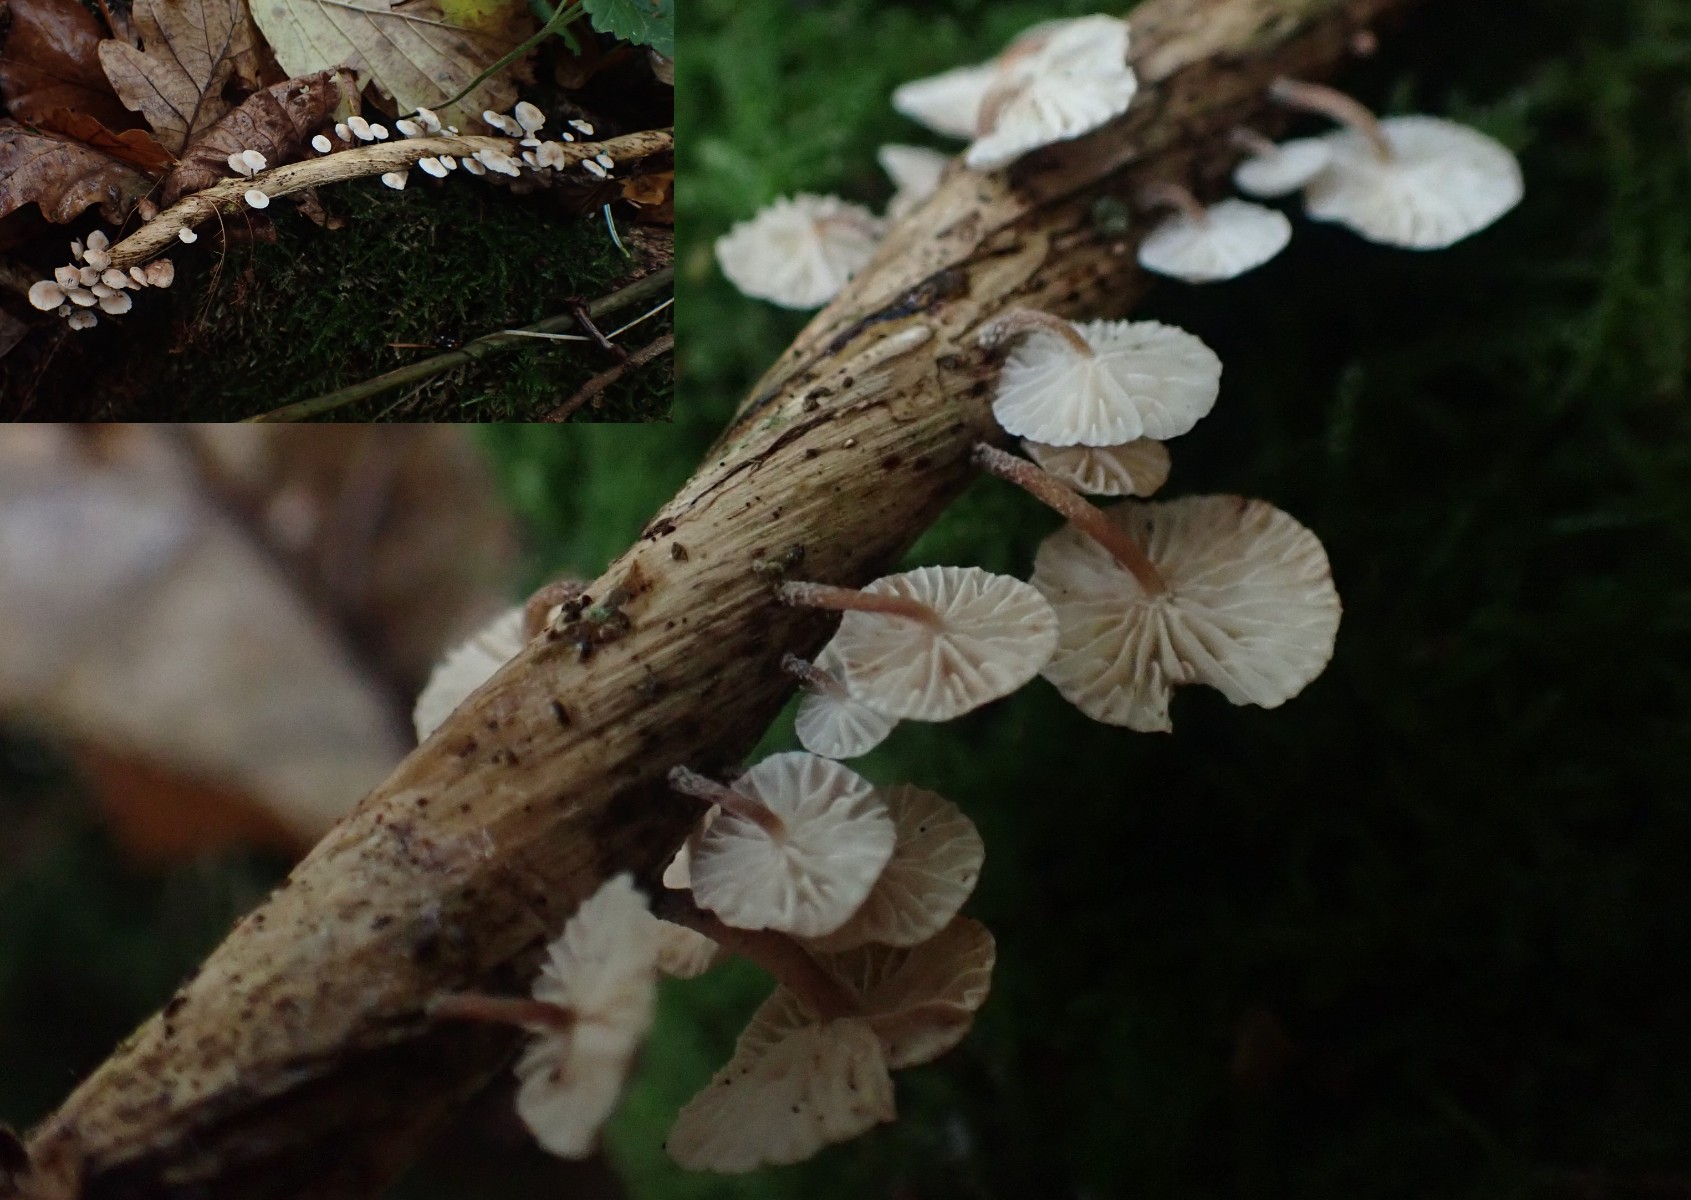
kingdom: Fungi
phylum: Basidiomycota
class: Agaricomycetes
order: Agaricales
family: Omphalotaceae
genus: Collybiopsis
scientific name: Collybiopsis ramealis
